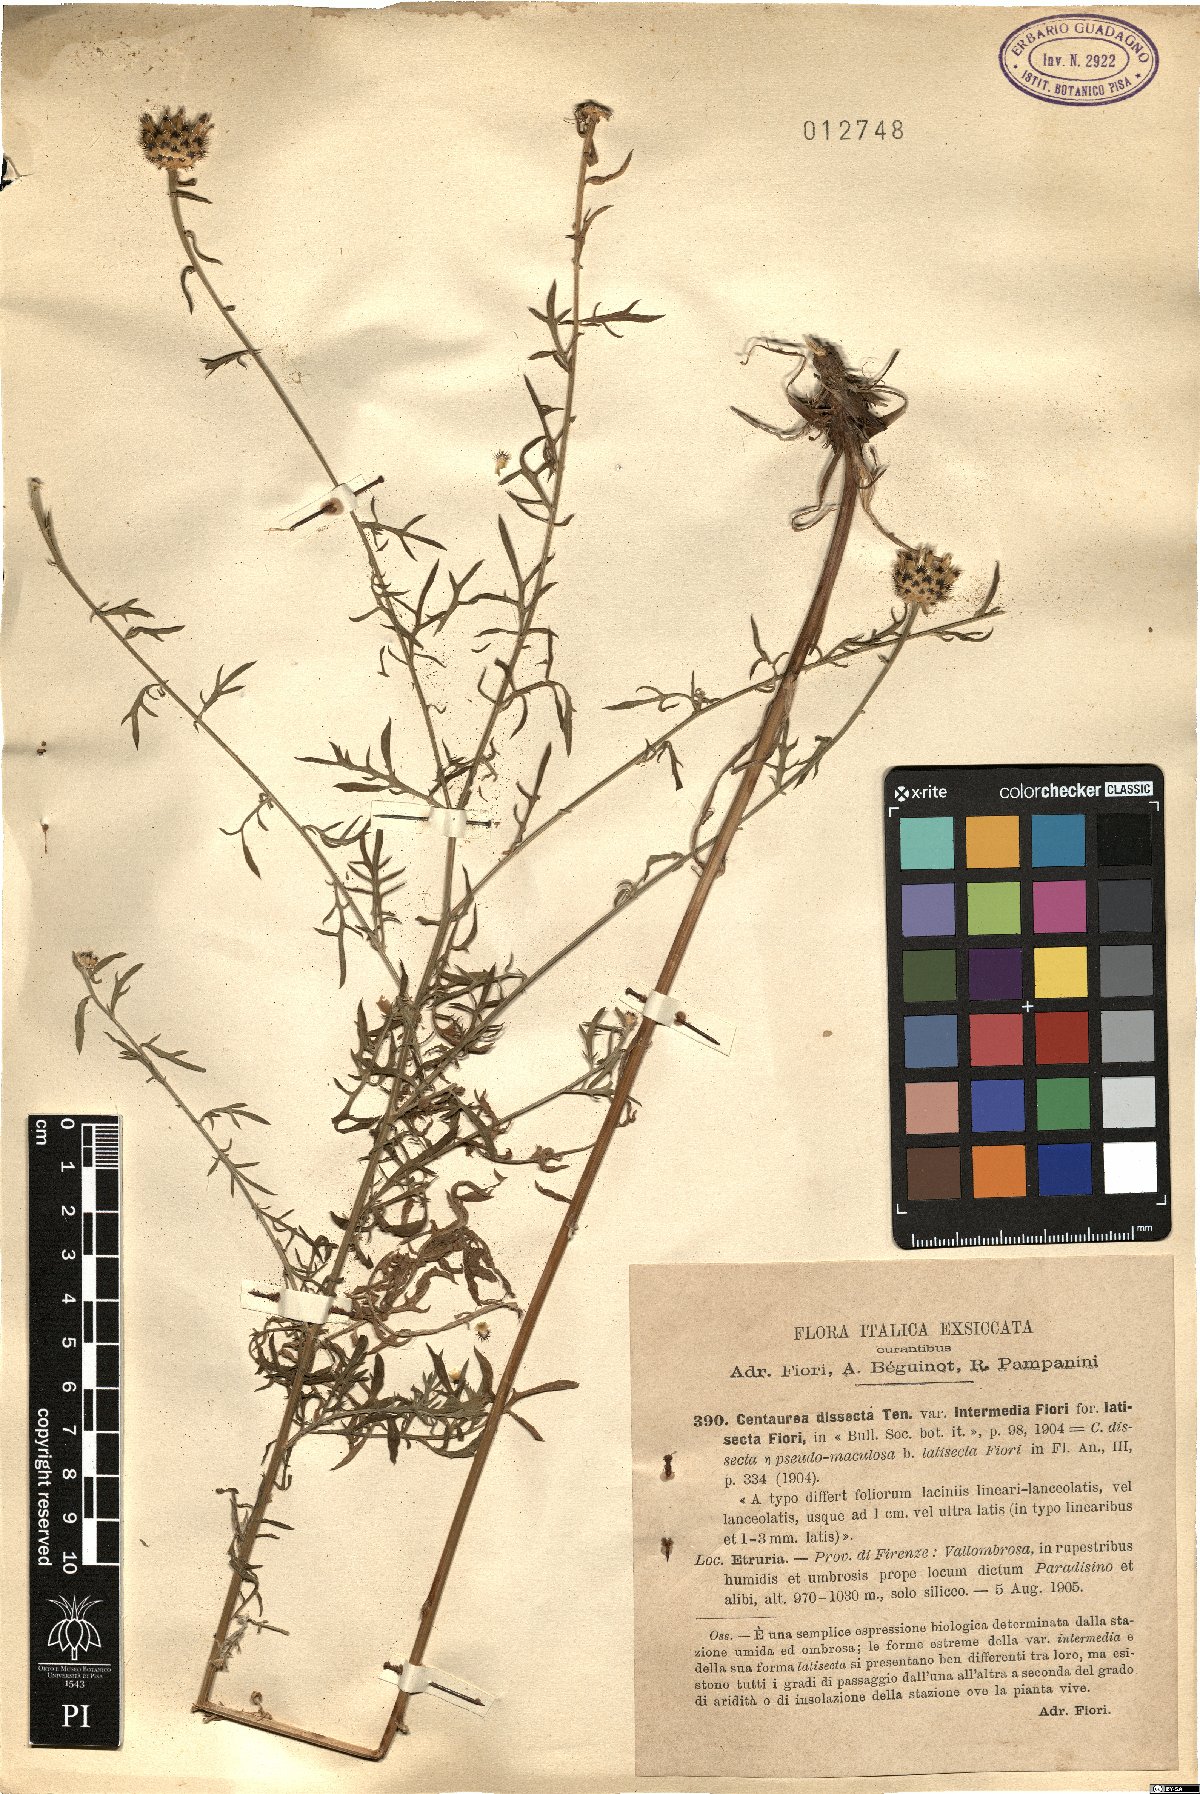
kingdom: Plantae
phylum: Tracheophyta
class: Magnoliopsida
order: Asterales
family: Asteraceae
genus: Centaurea
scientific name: Centaurea tenorei
